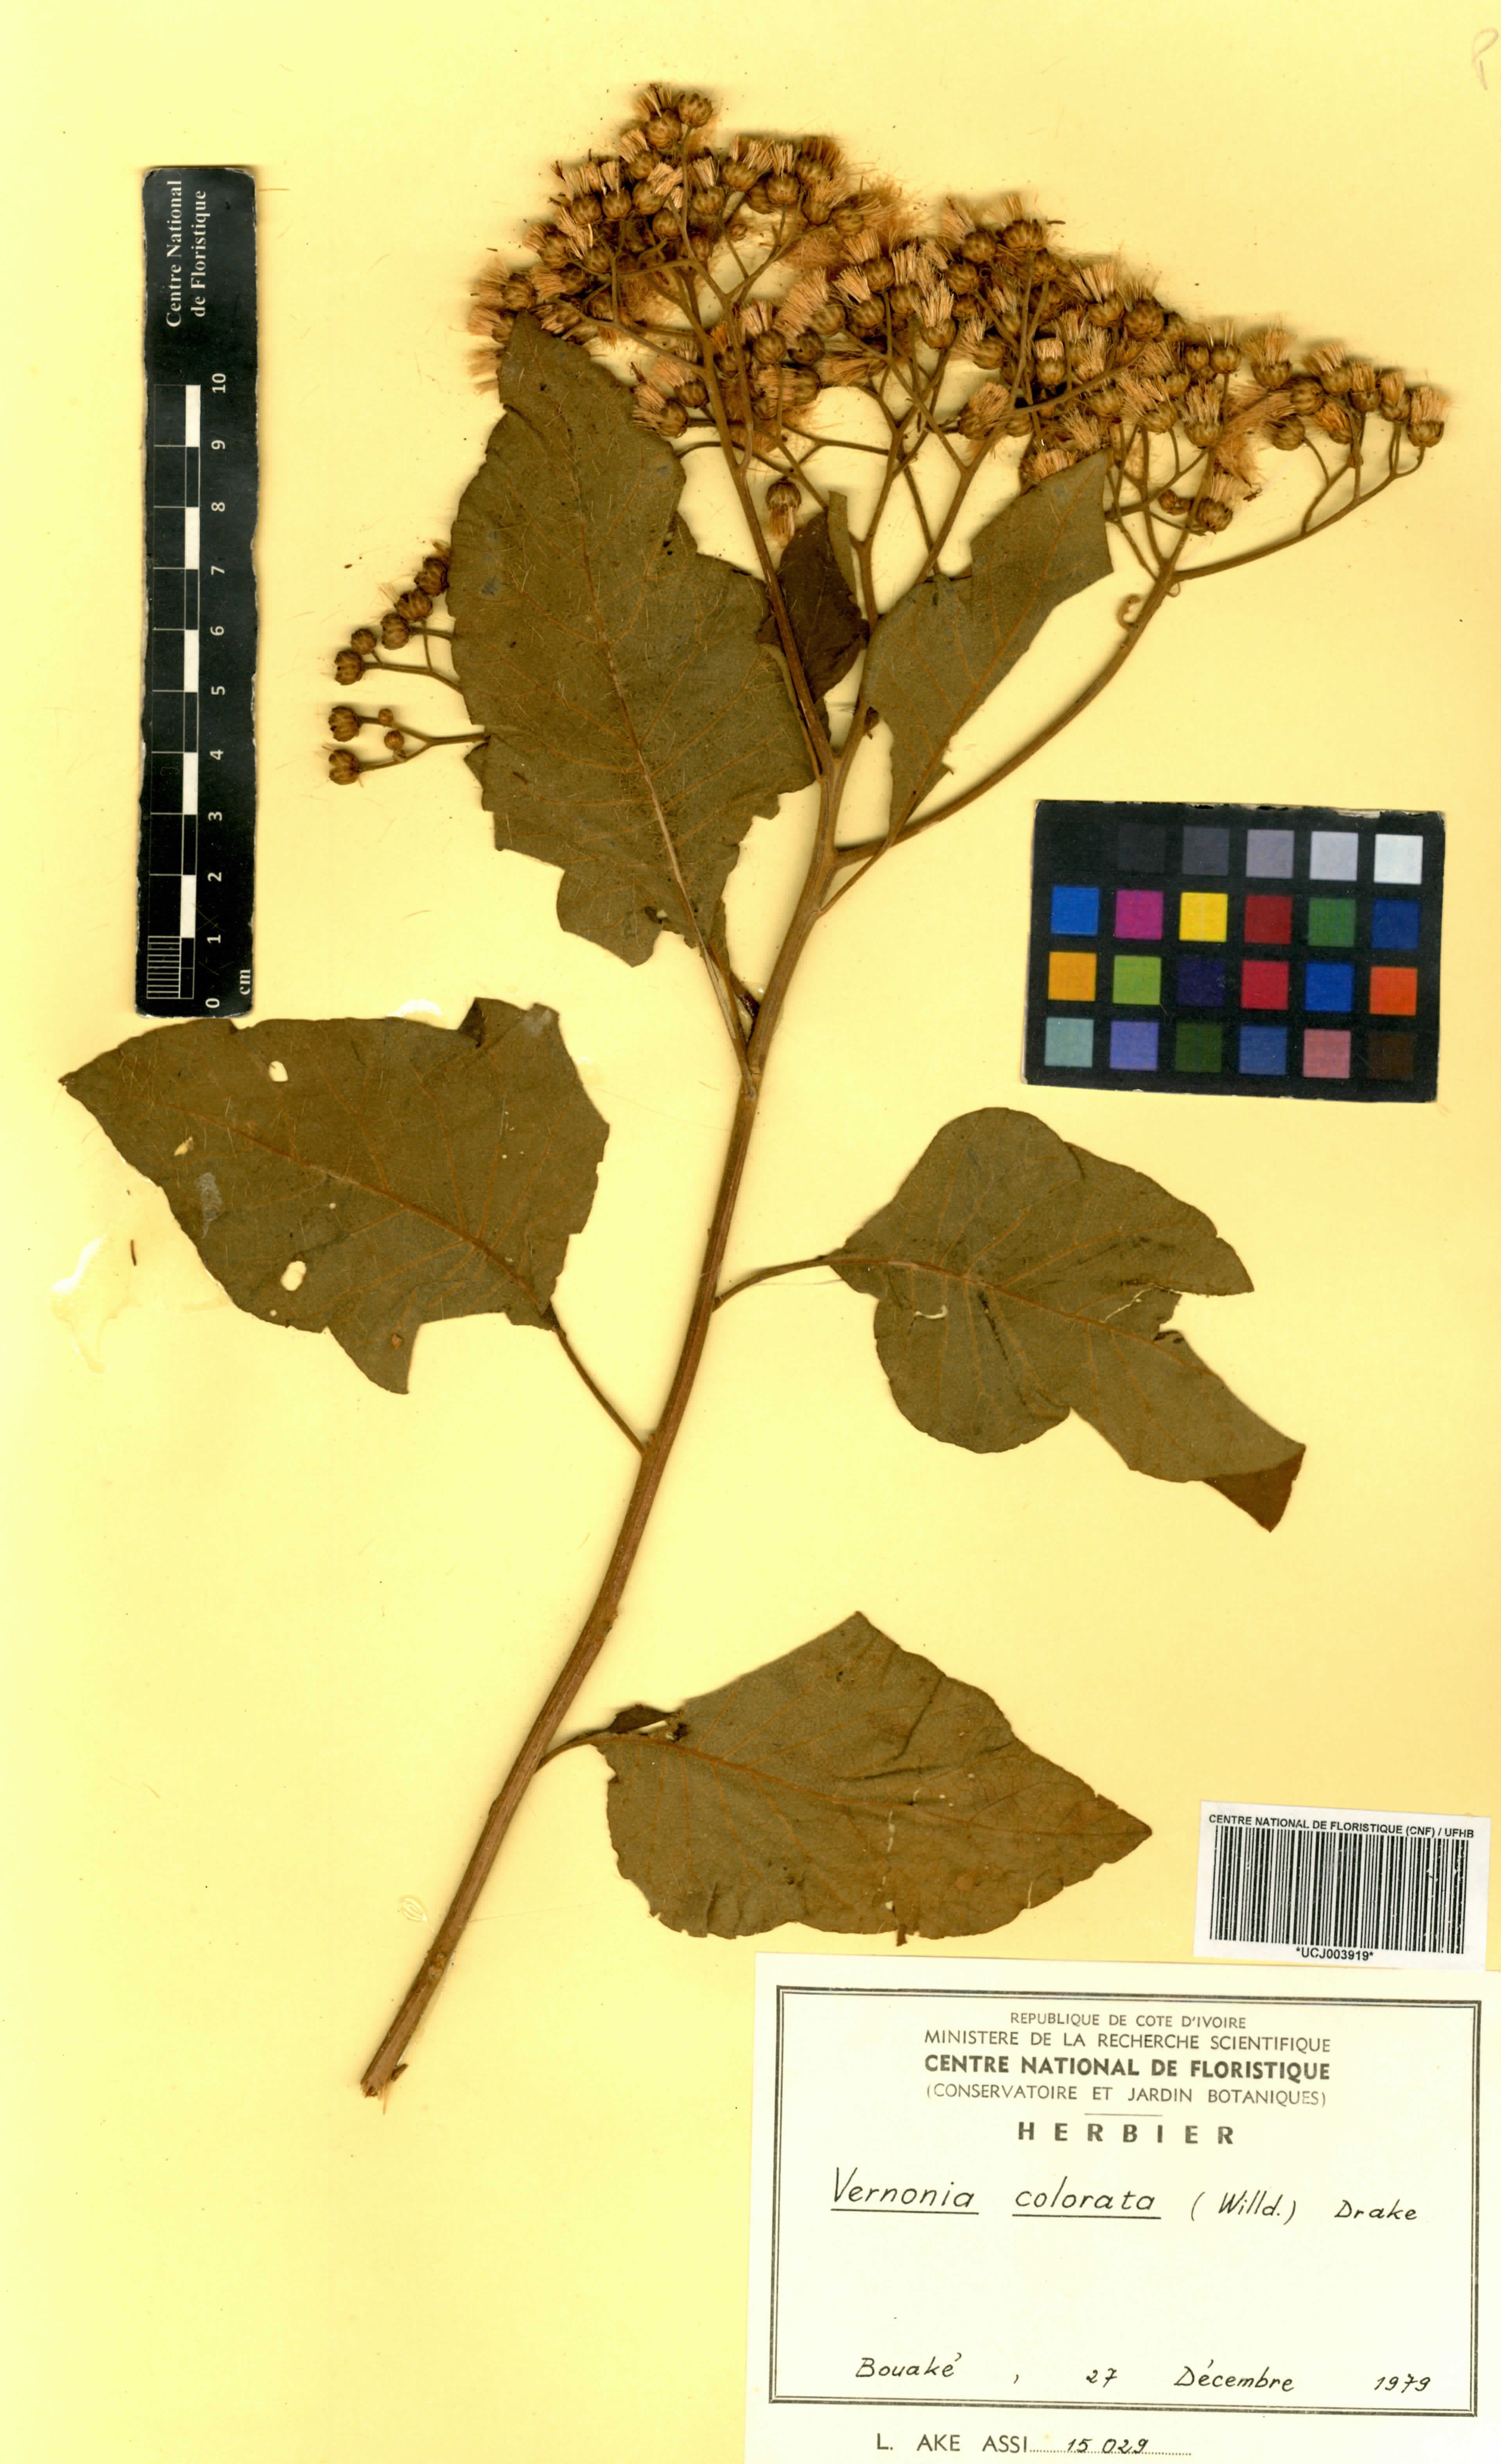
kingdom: Plantae
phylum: Tracheophyta
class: Magnoliopsida
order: Asterales
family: Asteraceae
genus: Vernonia
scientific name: Vernonia colorata
